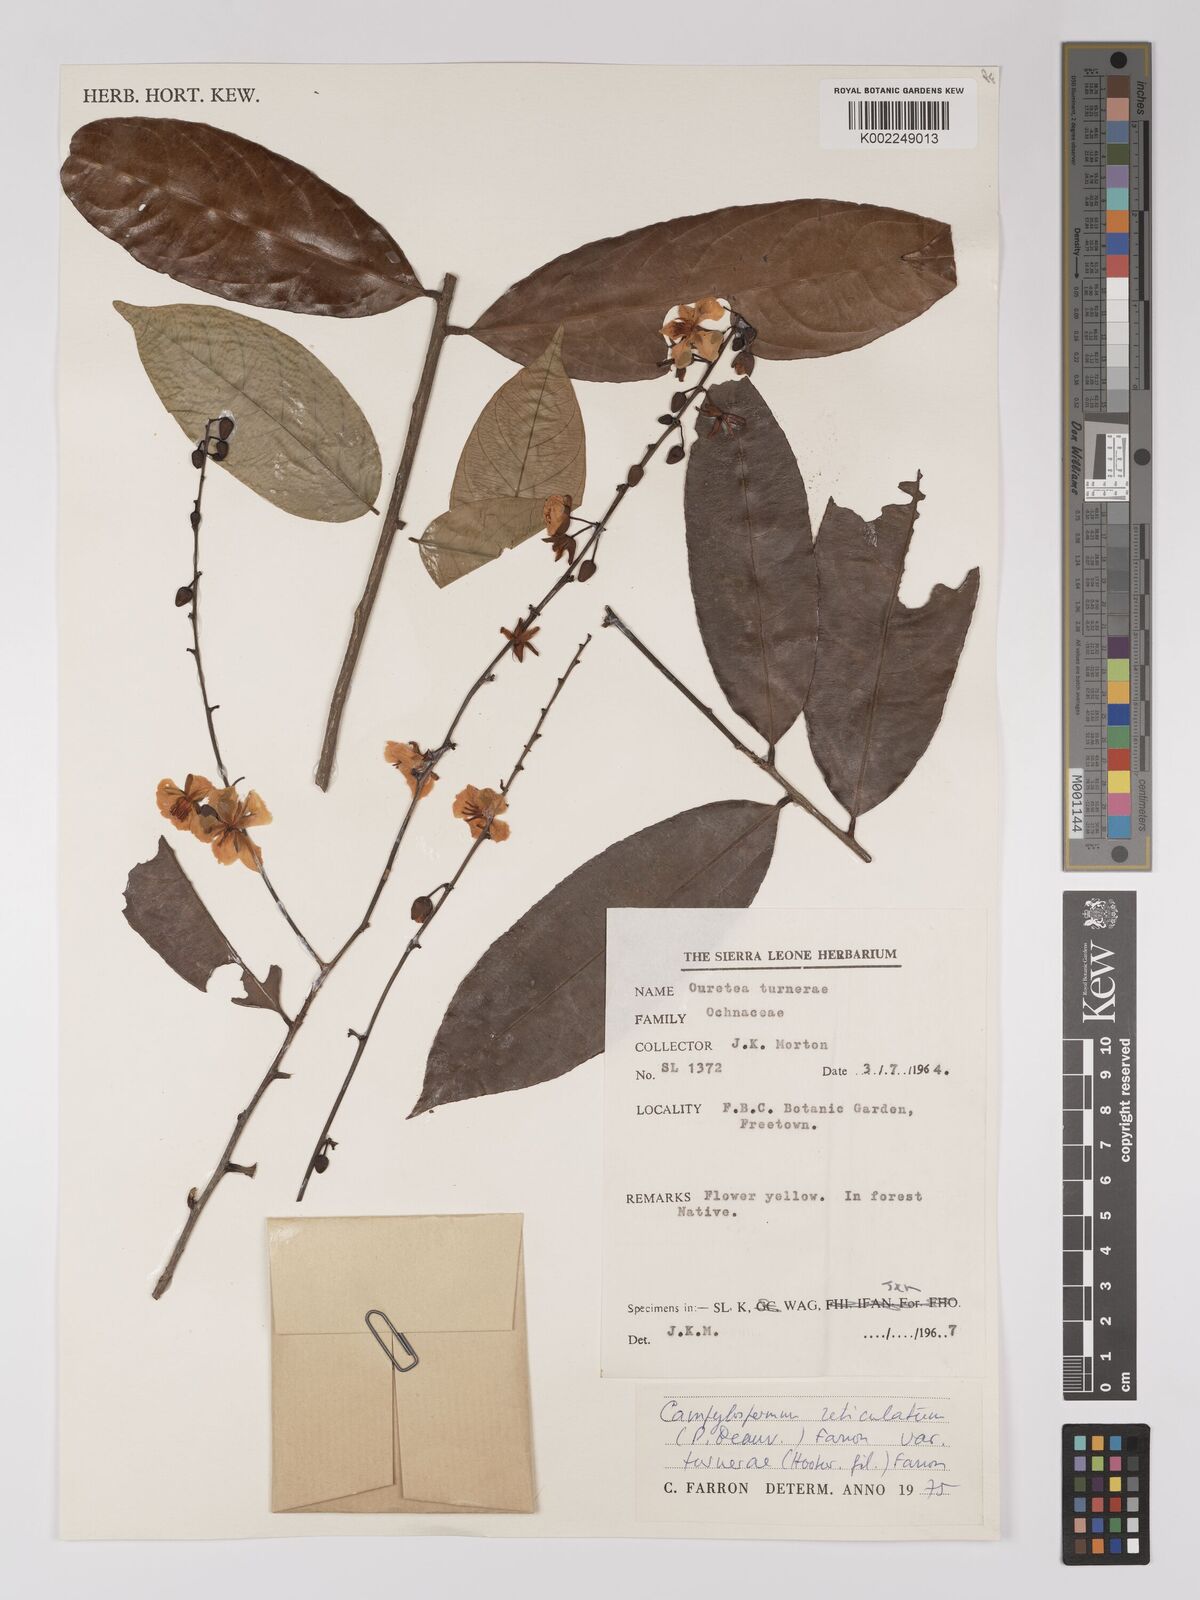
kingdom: Plantae
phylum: Tracheophyta
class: Magnoliopsida
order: Malpighiales
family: Ochnaceae
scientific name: Ochnaceae
